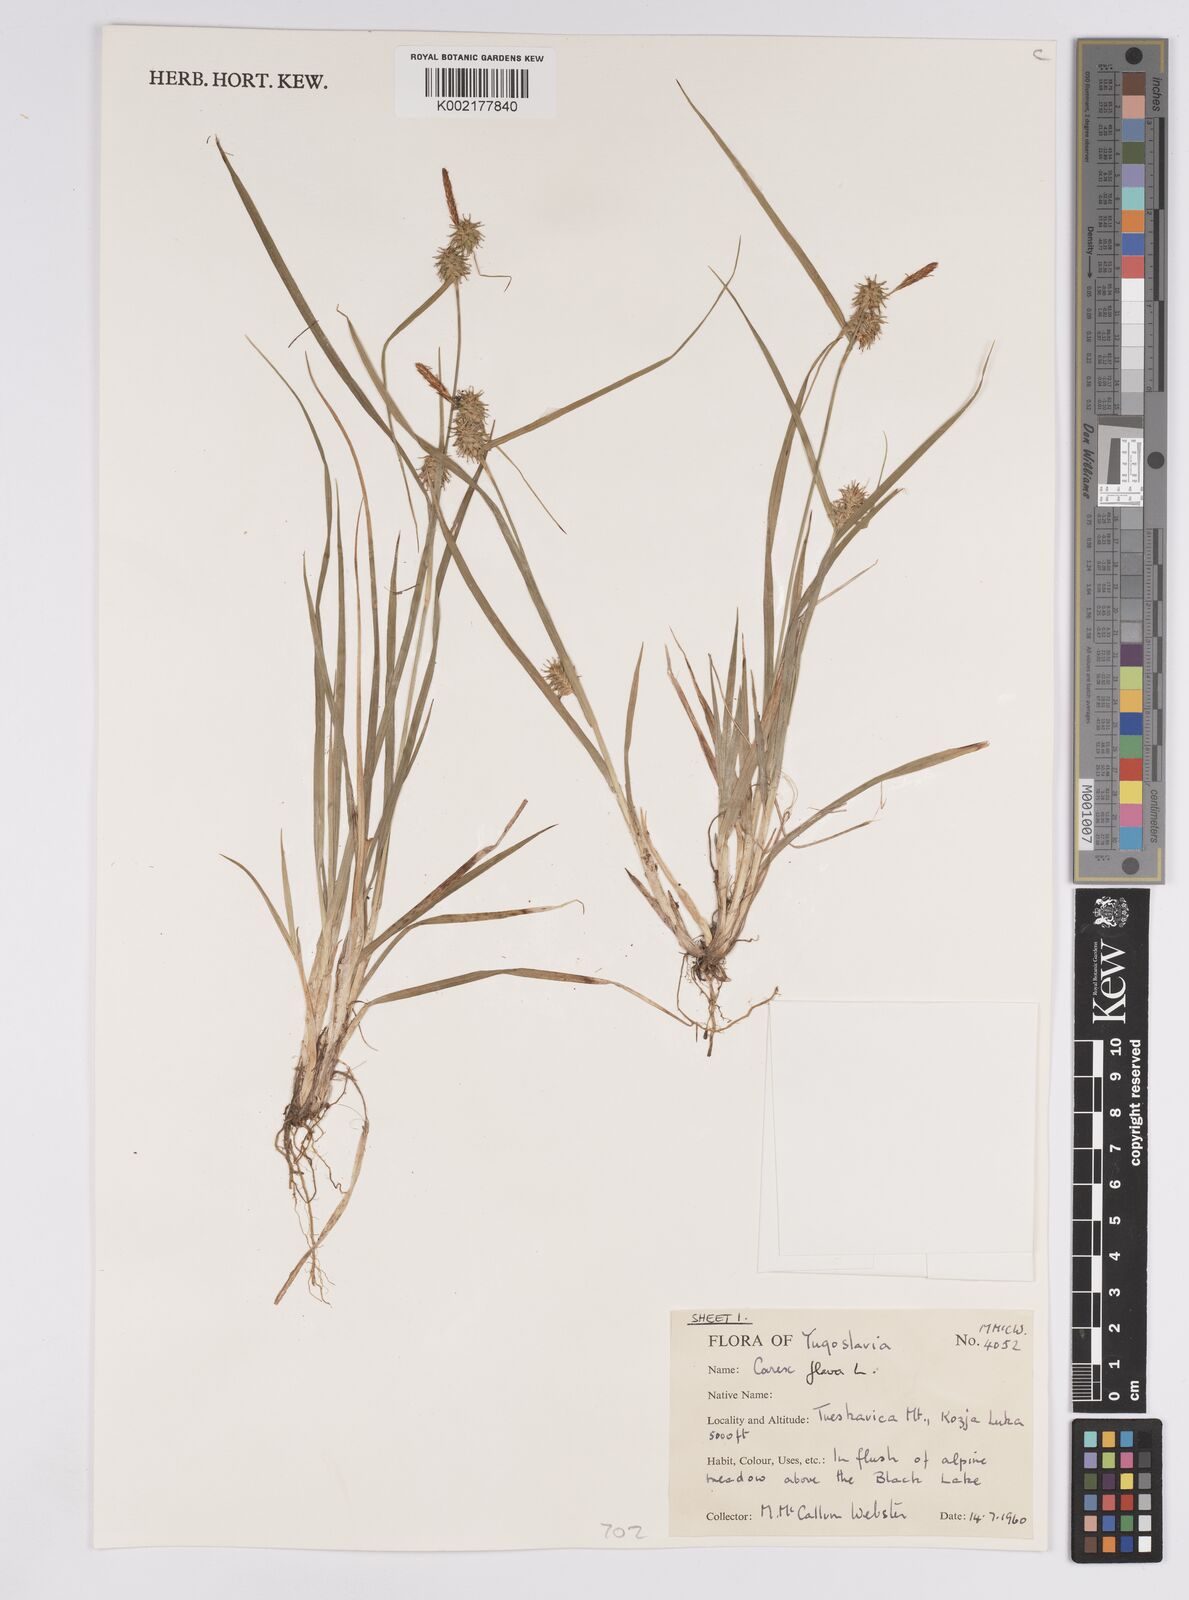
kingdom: Plantae
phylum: Tracheophyta
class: Liliopsida
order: Poales
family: Cyperaceae
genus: Carex
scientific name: Carex flava
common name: Large yellow-sedge
